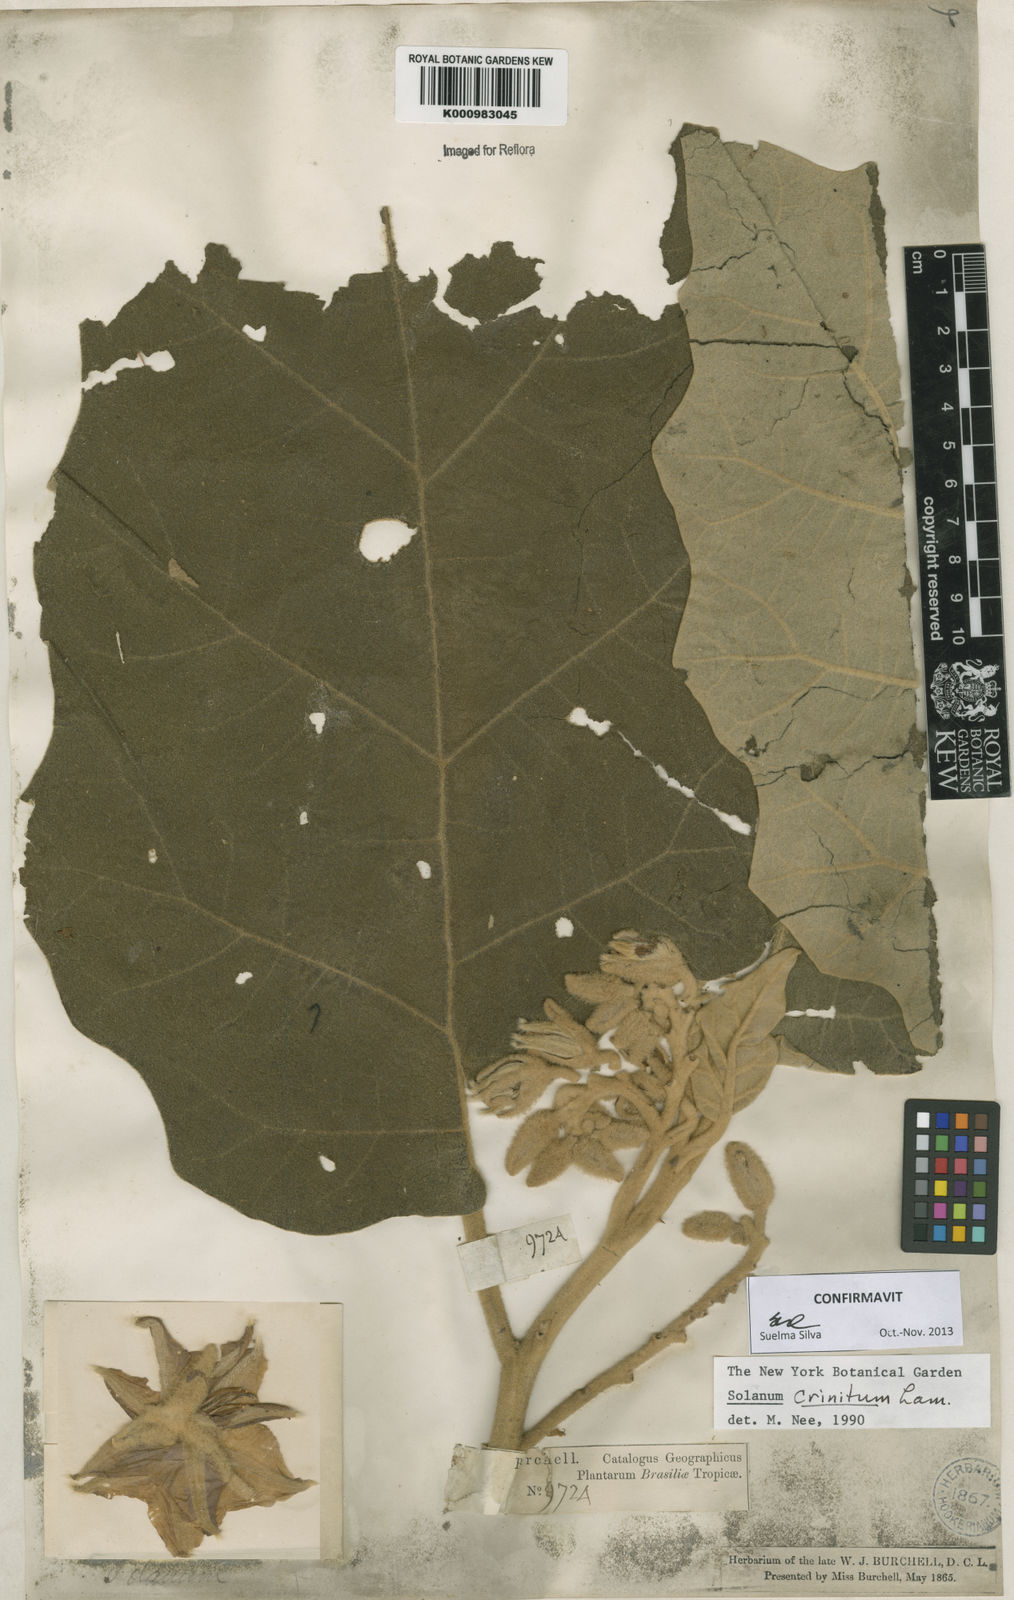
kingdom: Plantae
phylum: Tracheophyta
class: Magnoliopsida
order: Solanales
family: Solanaceae
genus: Solanum
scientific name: Solanum crinitum
